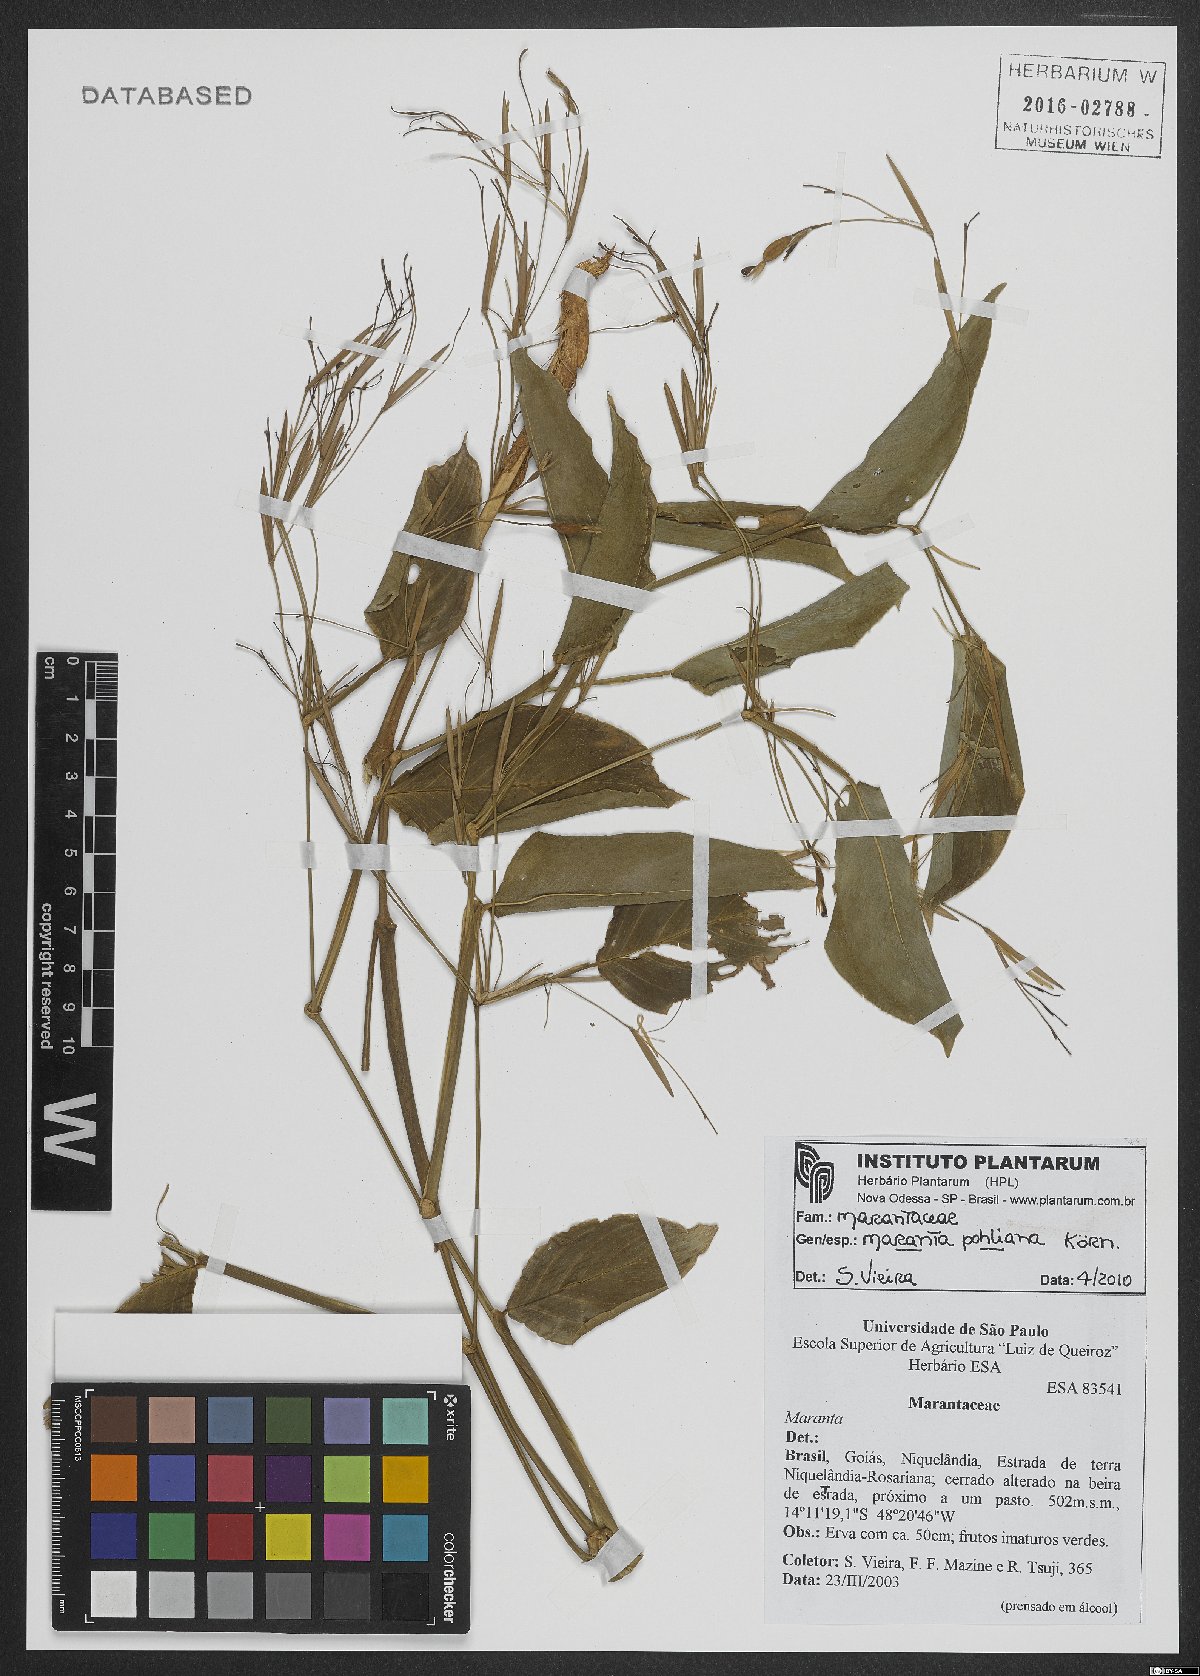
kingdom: Plantae
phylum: Tracheophyta
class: Liliopsida
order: Zingiberales
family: Marantaceae
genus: Maranta
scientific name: Maranta pohliana
